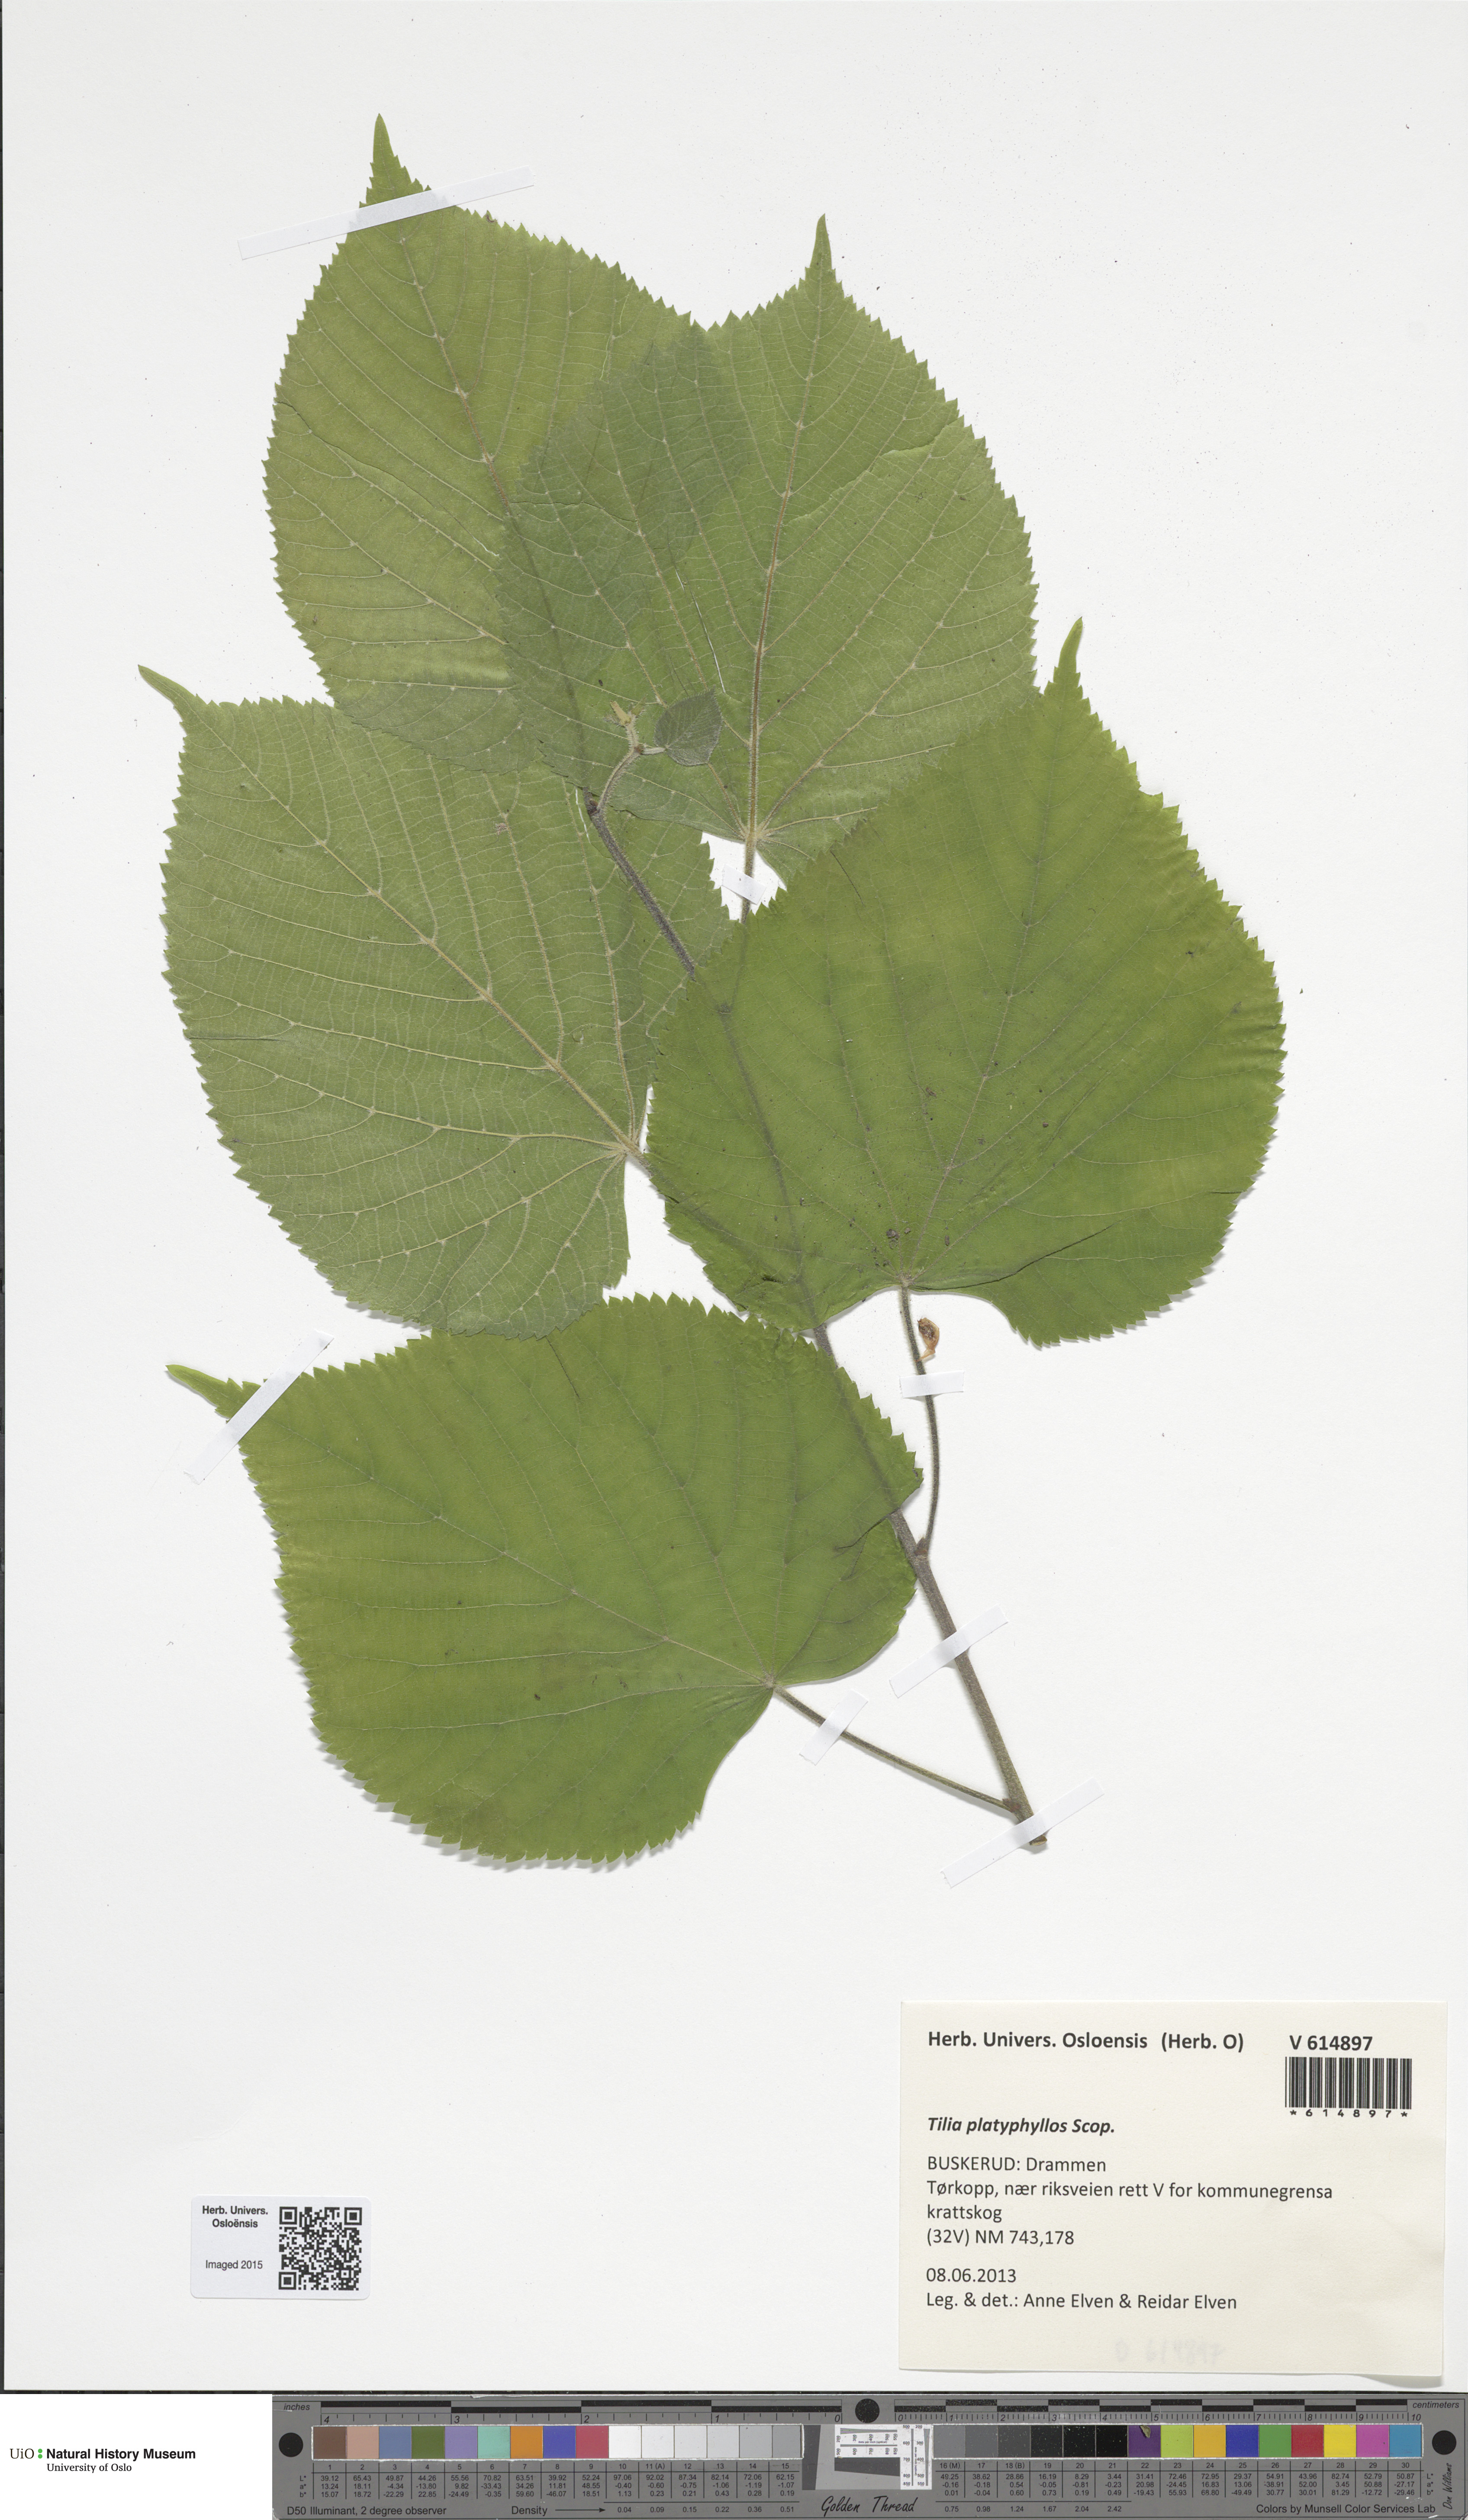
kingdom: Plantae
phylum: Tracheophyta
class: Magnoliopsida
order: Malvales
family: Malvaceae
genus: Tilia
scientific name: Tilia platyphyllos
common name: Large-leaved lime
